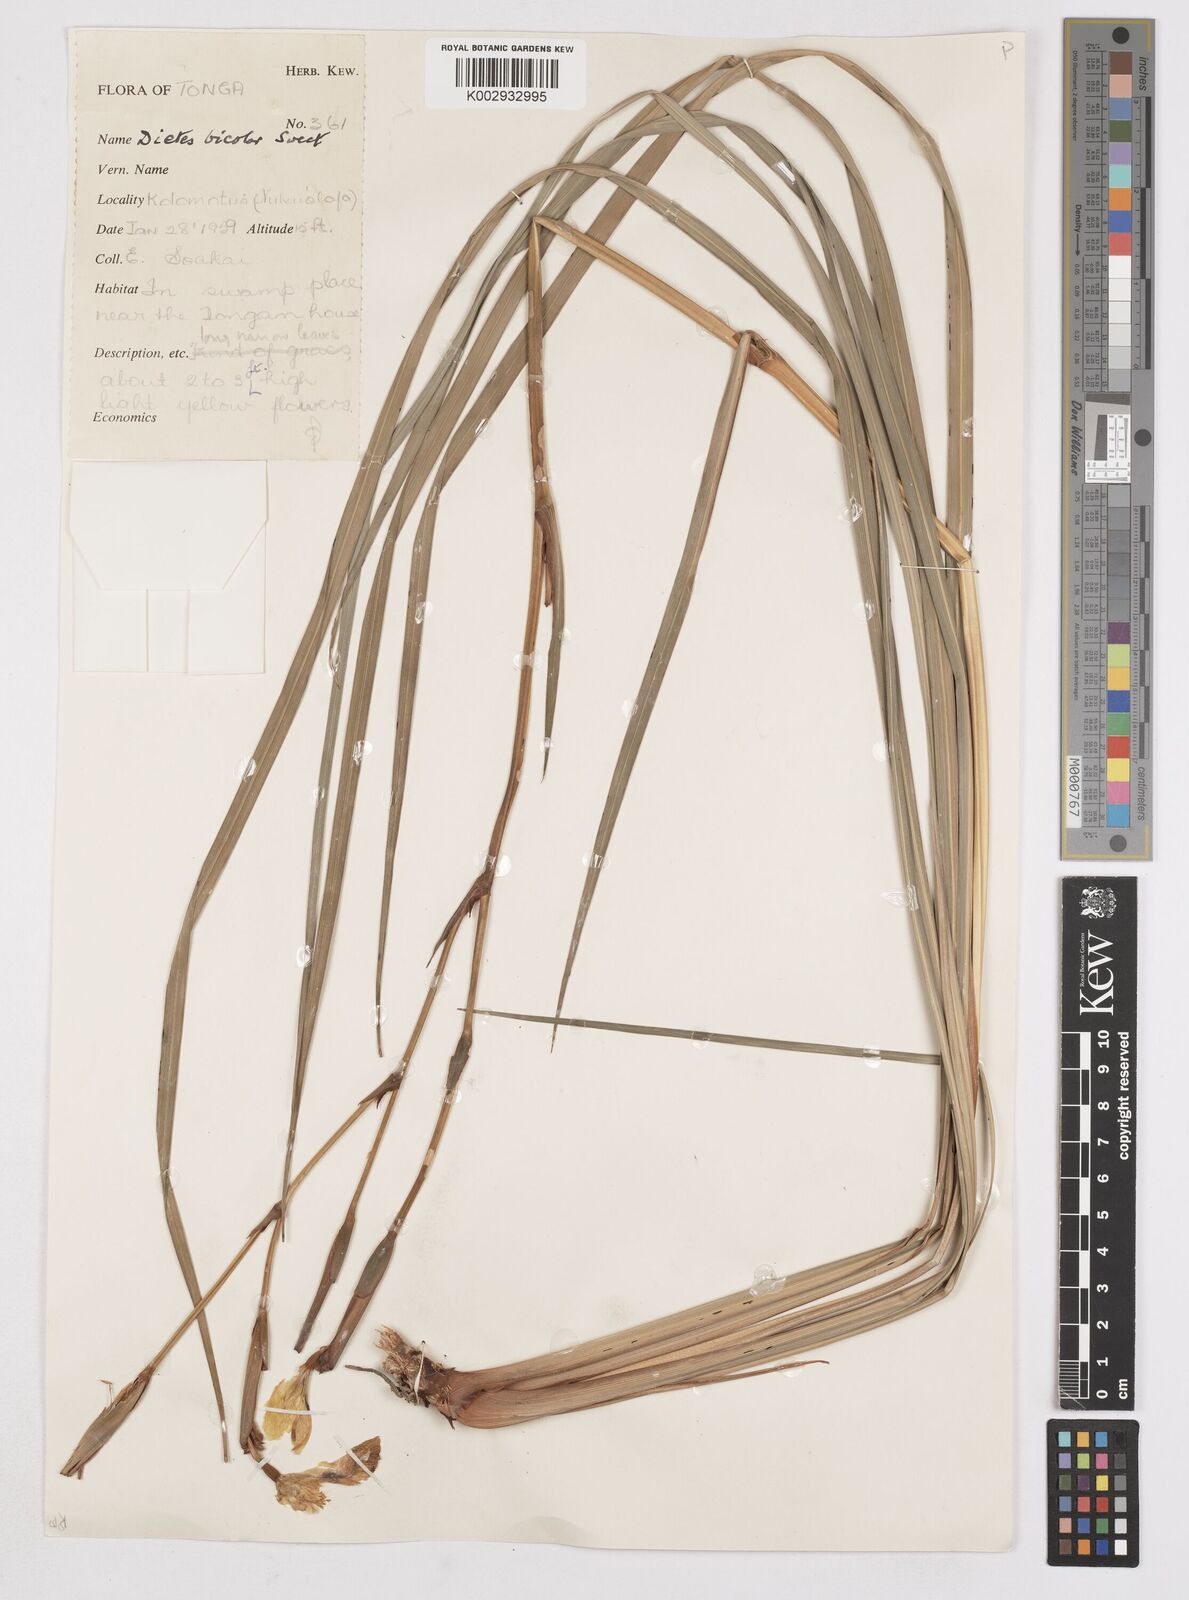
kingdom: Plantae
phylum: Tracheophyta
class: Liliopsida
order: Asparagales
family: Iridaceae
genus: Dietes
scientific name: Dietes bicolor
